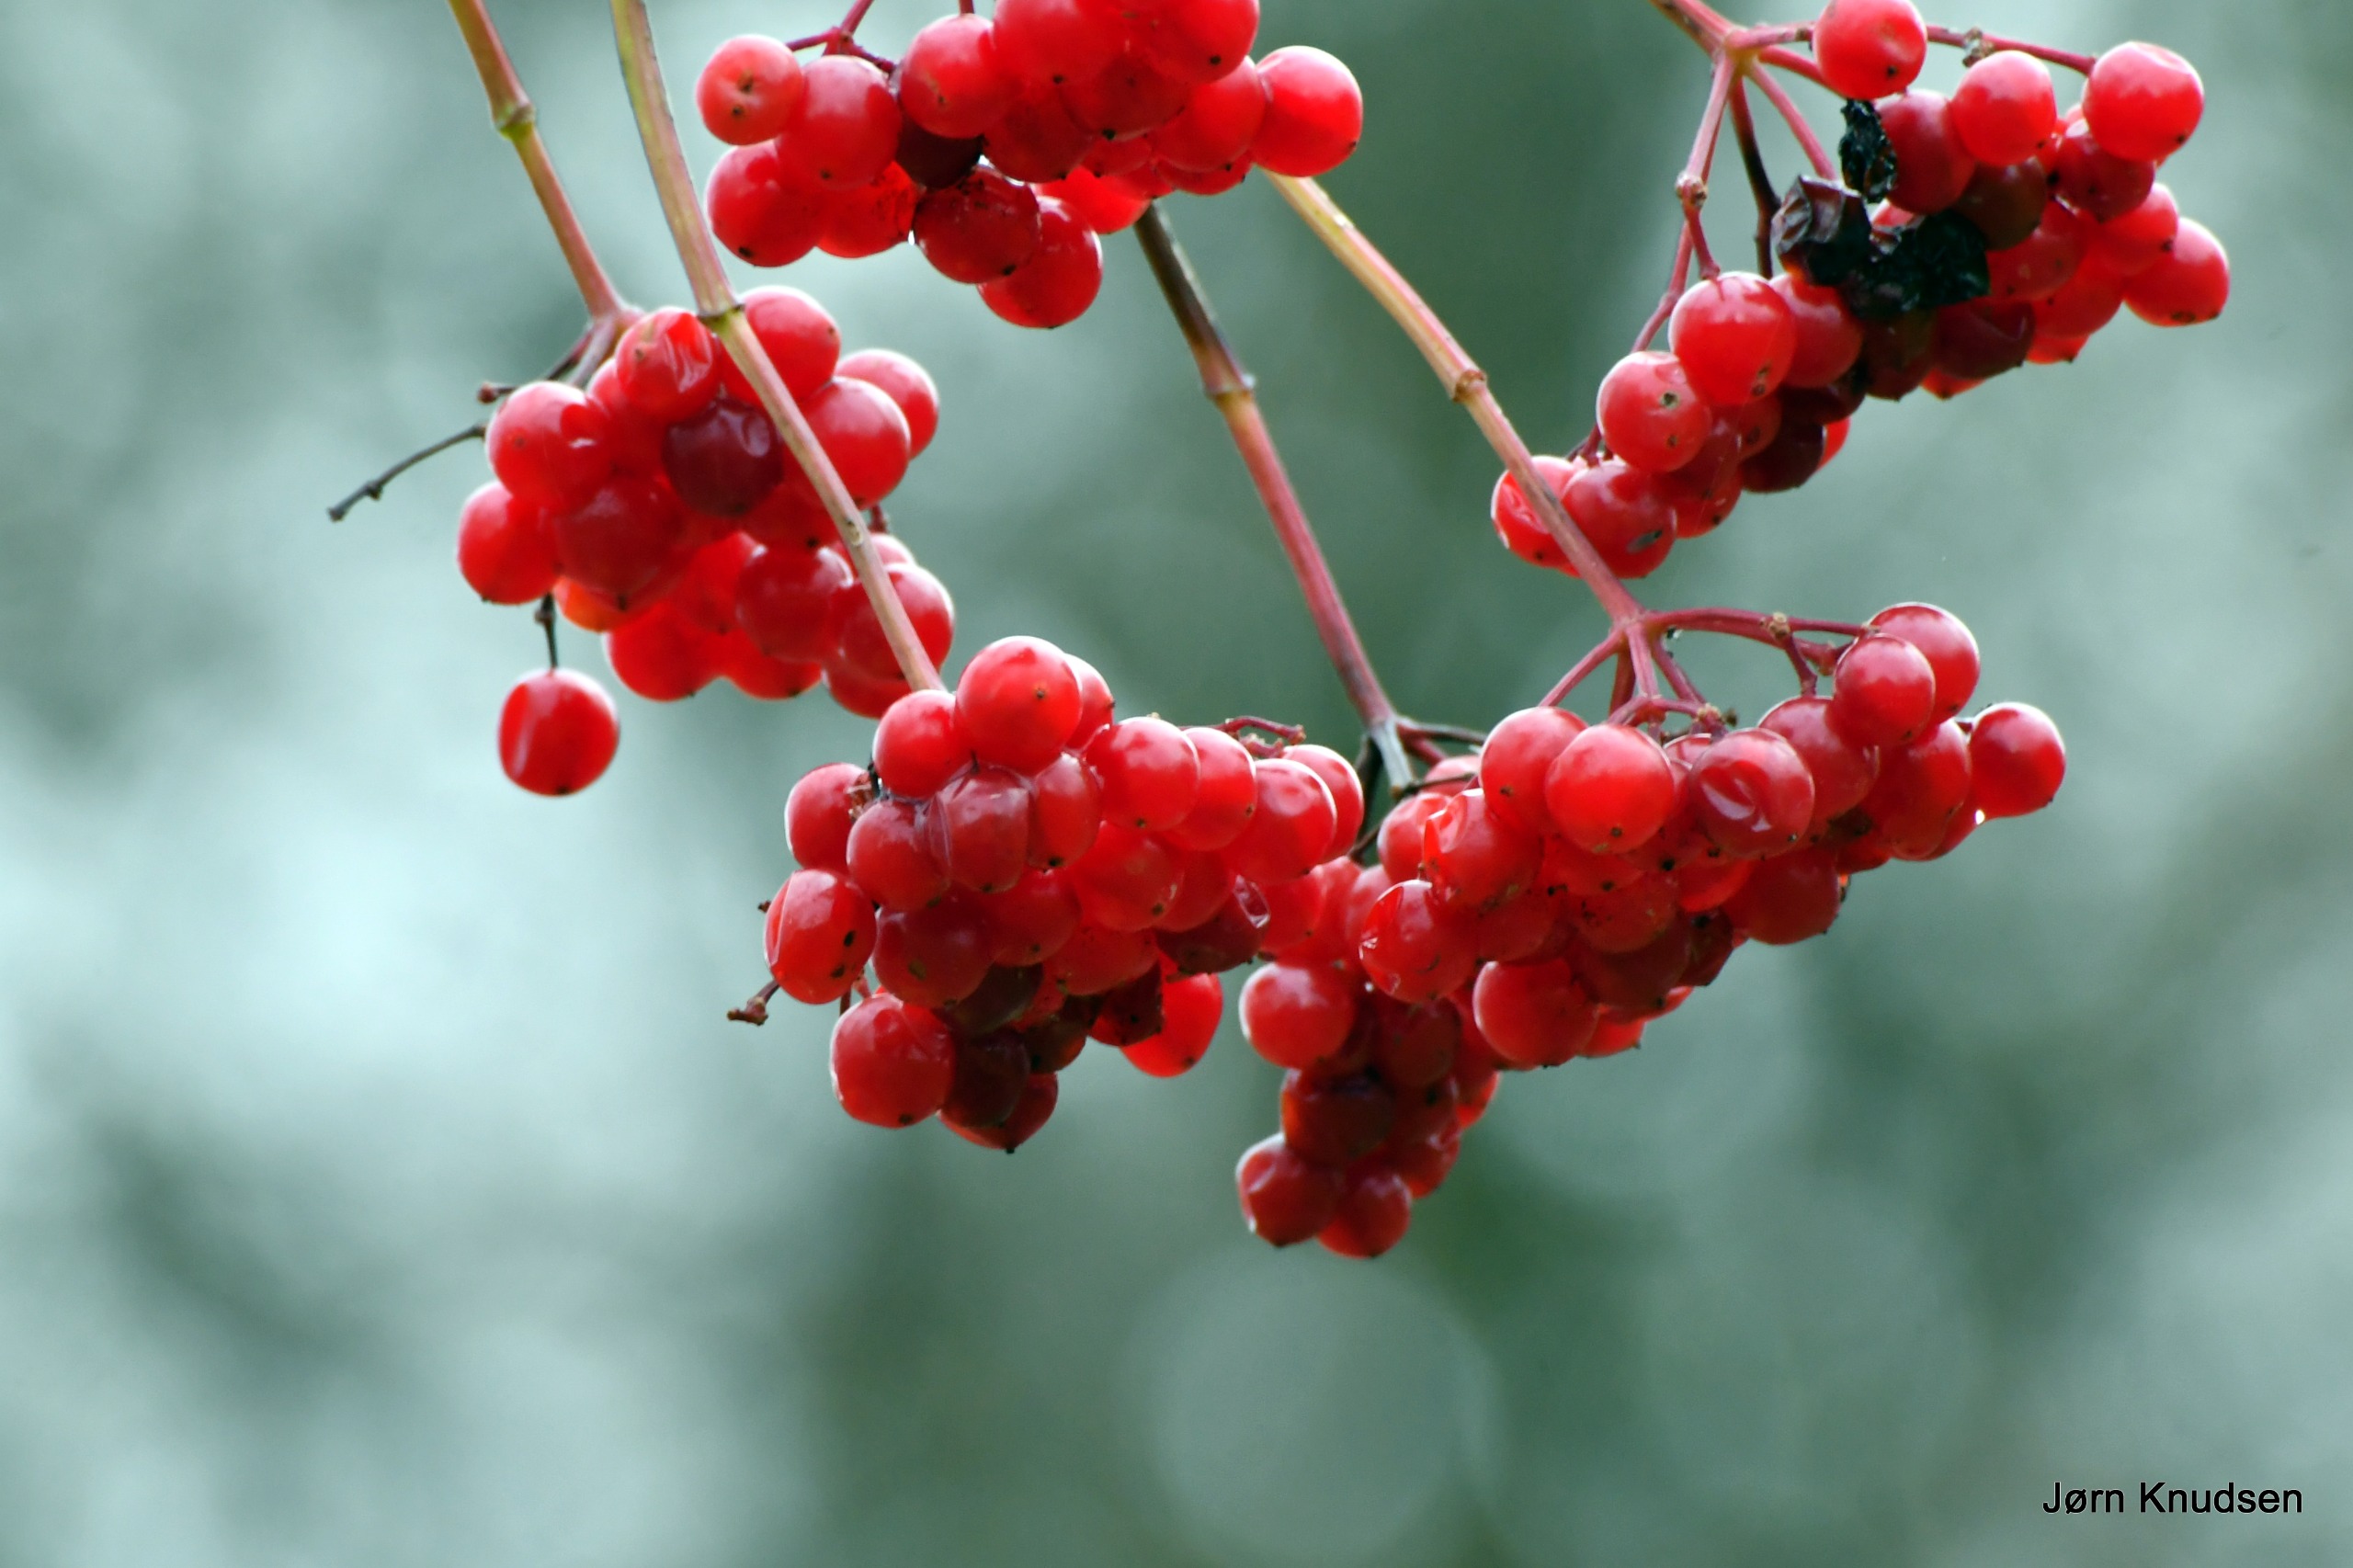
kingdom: Plantae
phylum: Tracheophyta
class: Magnoliopsida
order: Dipsacales
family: Viburnaceae
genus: Viburnum
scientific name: Viburnum opulus
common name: Kvalkved
